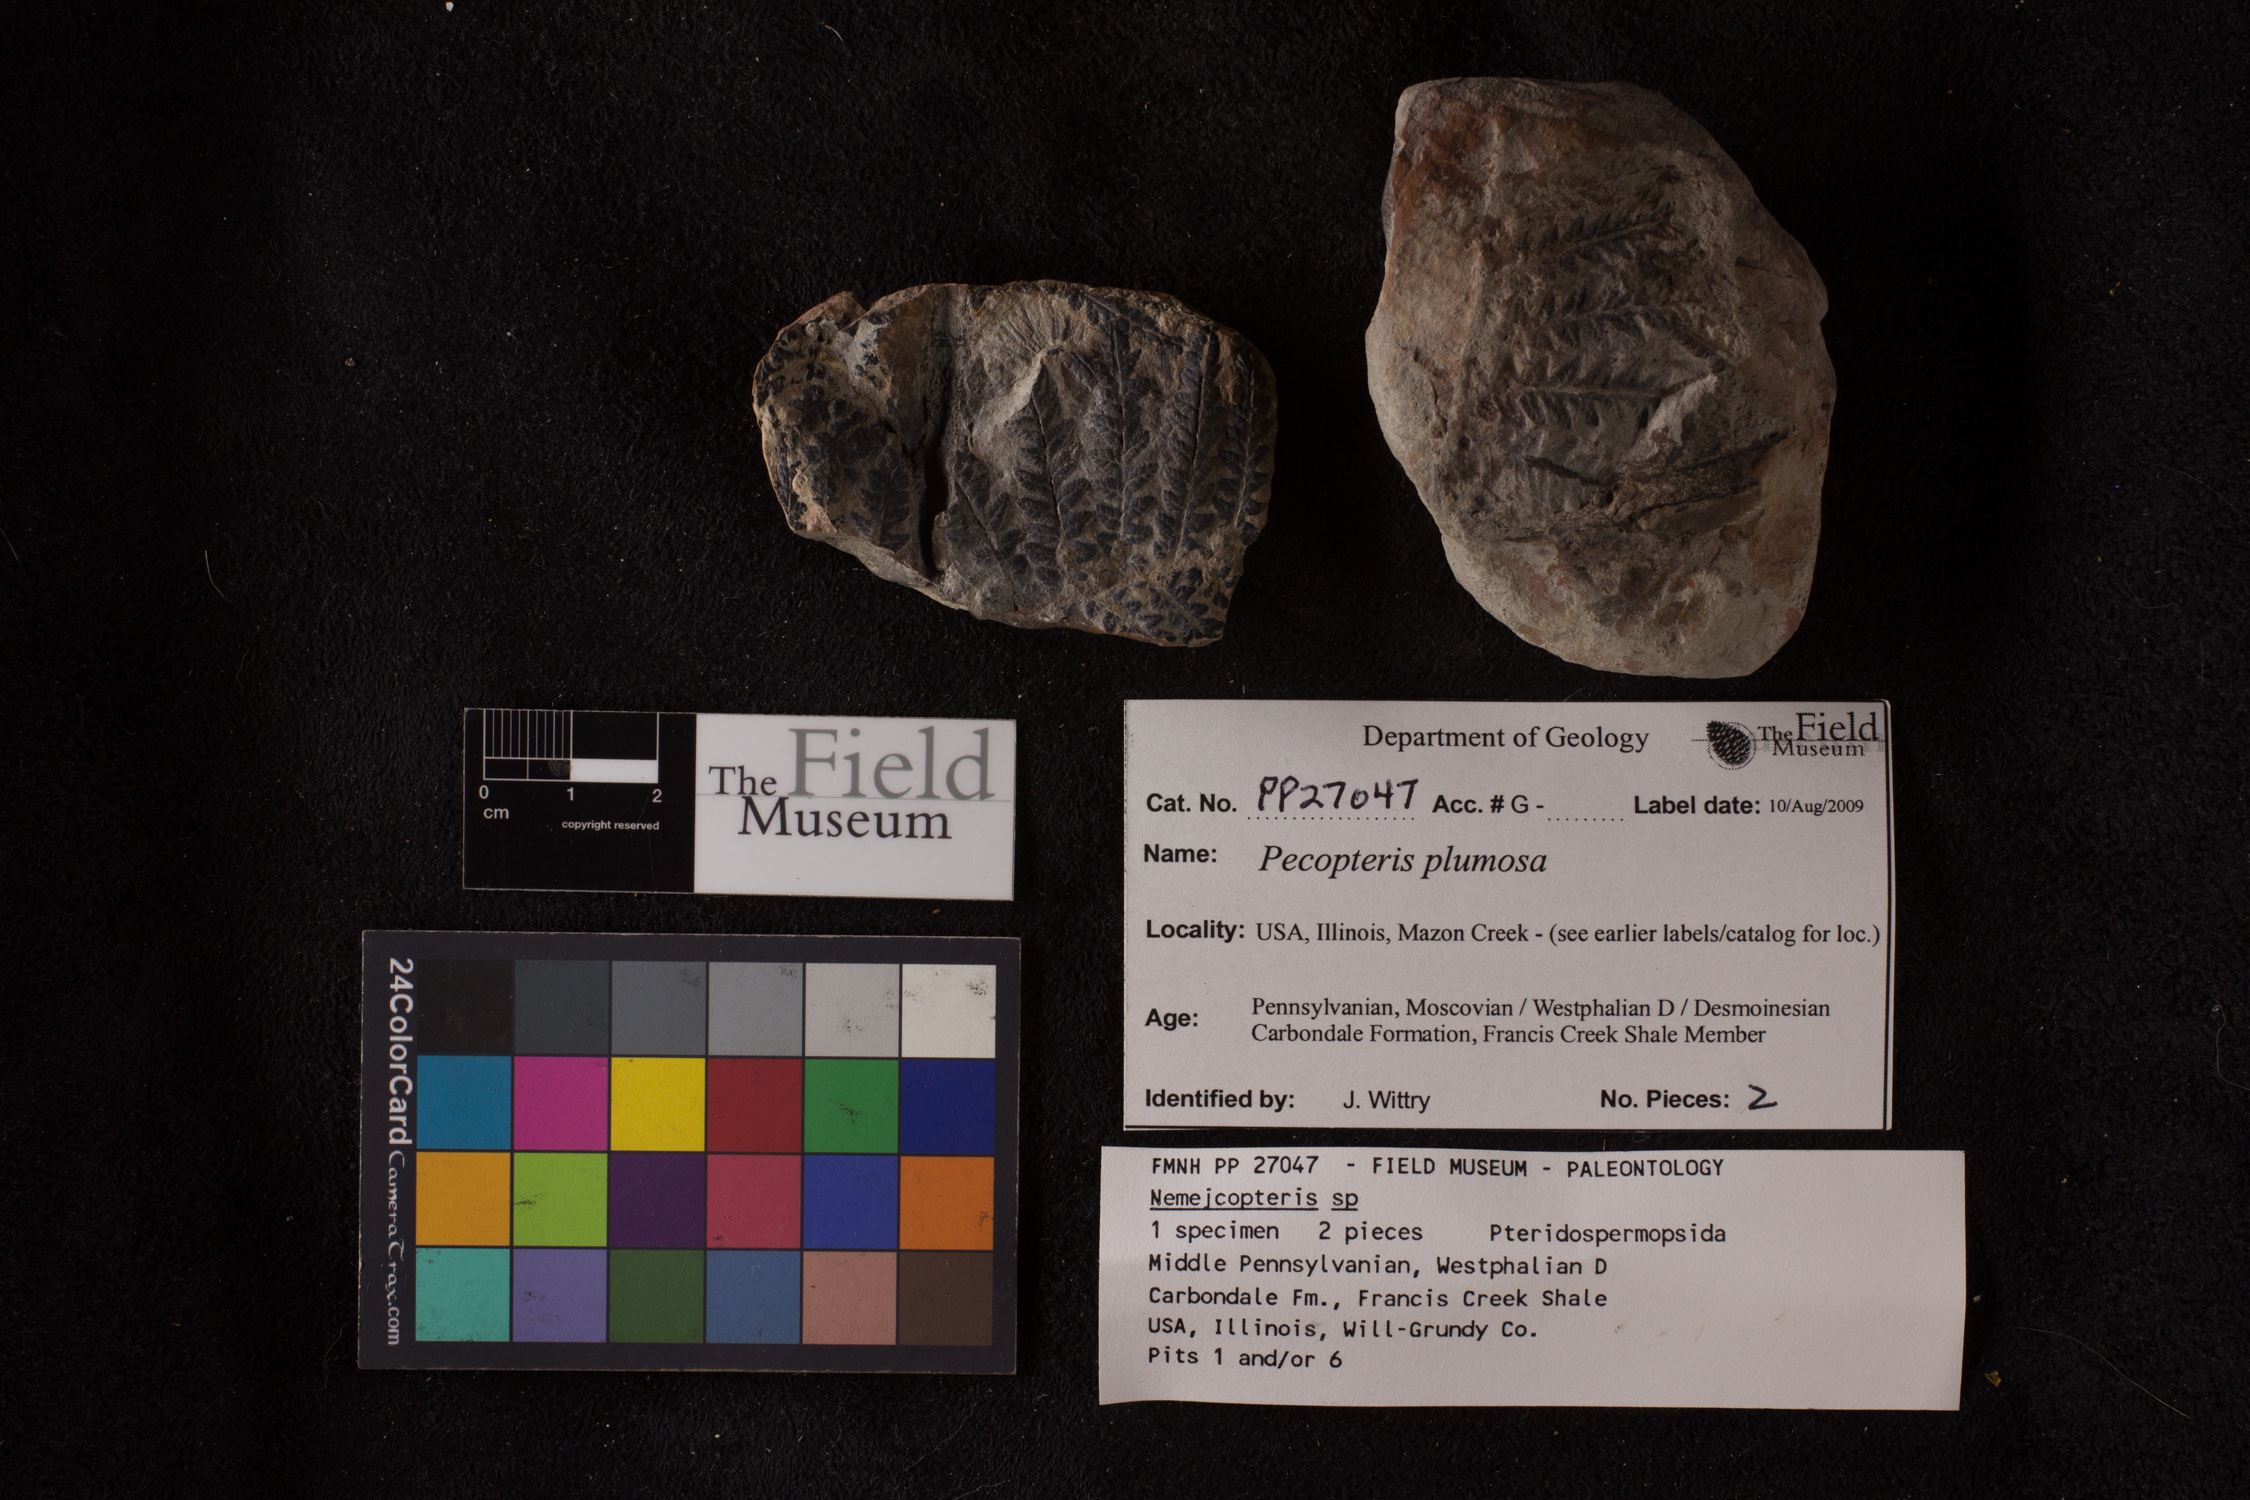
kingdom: Plantae
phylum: Tracheophyta
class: Polypodiopsida
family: Tedeleaceae
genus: Senftenbergia
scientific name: Senftenbergia
